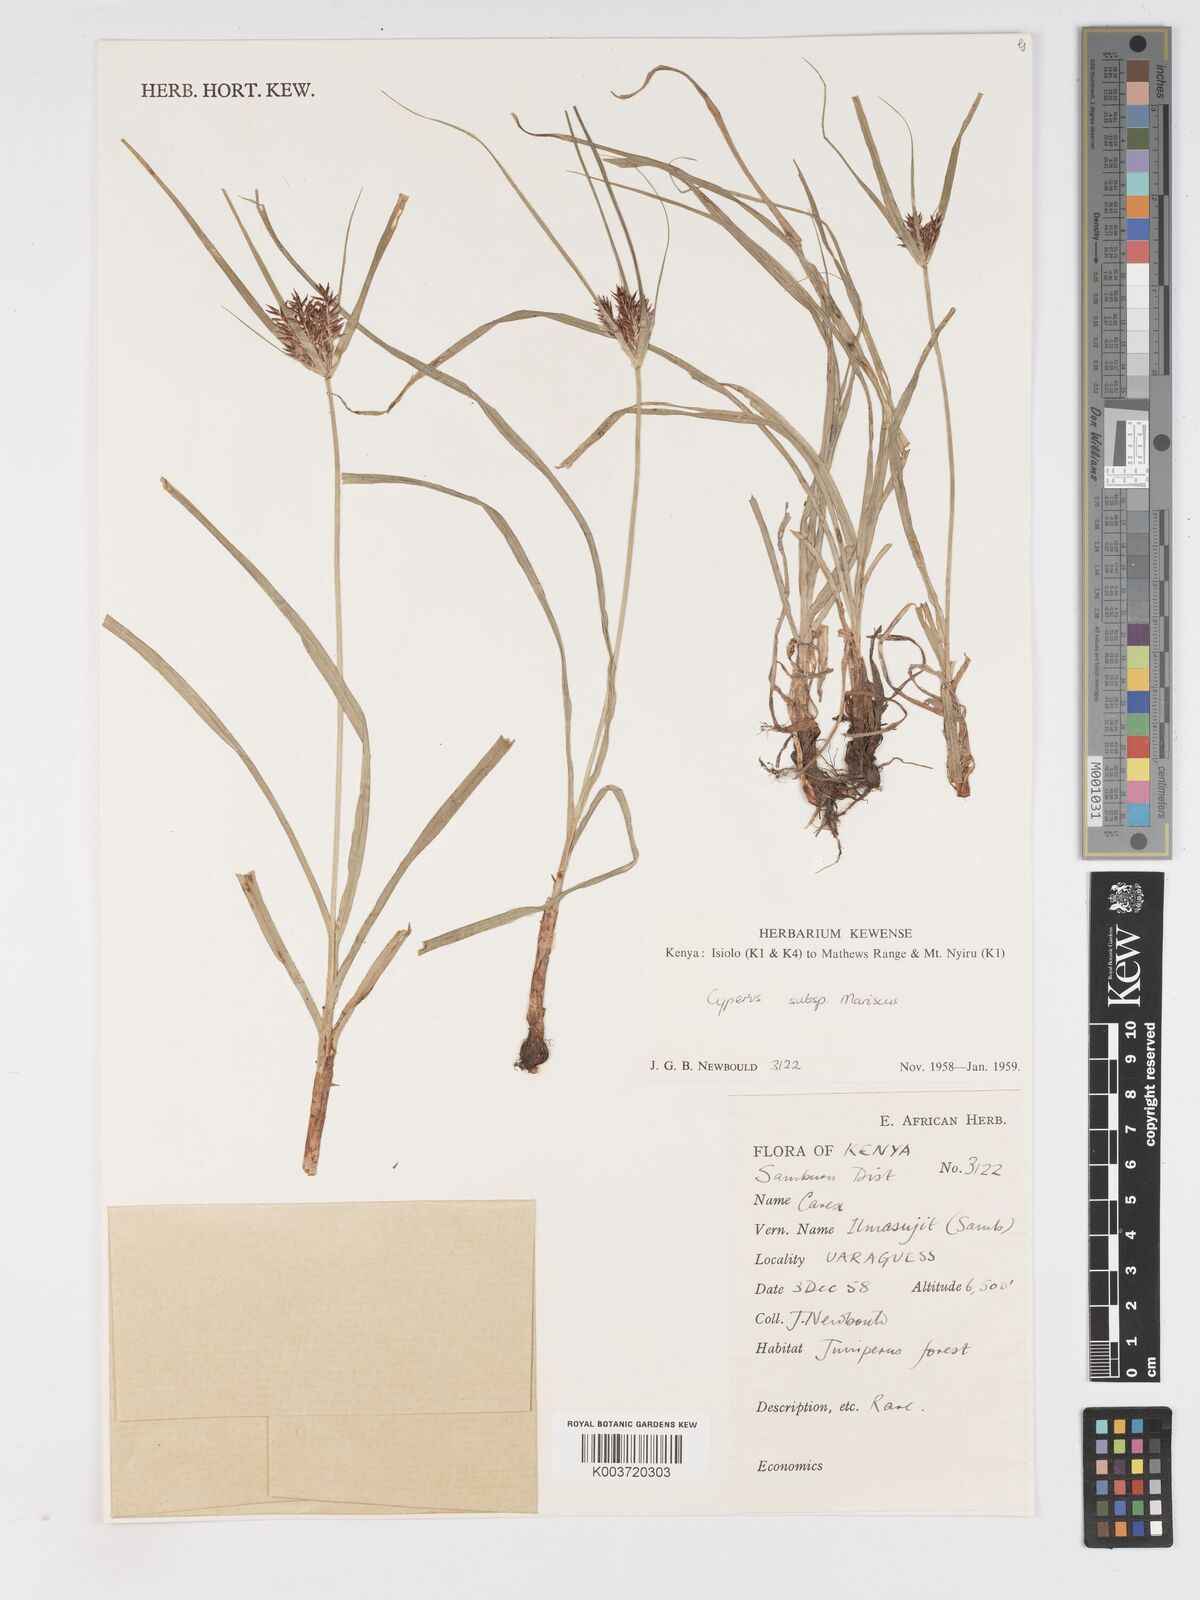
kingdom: Plantae
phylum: Tracheophyta
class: Liliopsida
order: Poales
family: Cyperaceae
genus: Cyperus
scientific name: Cyperus
